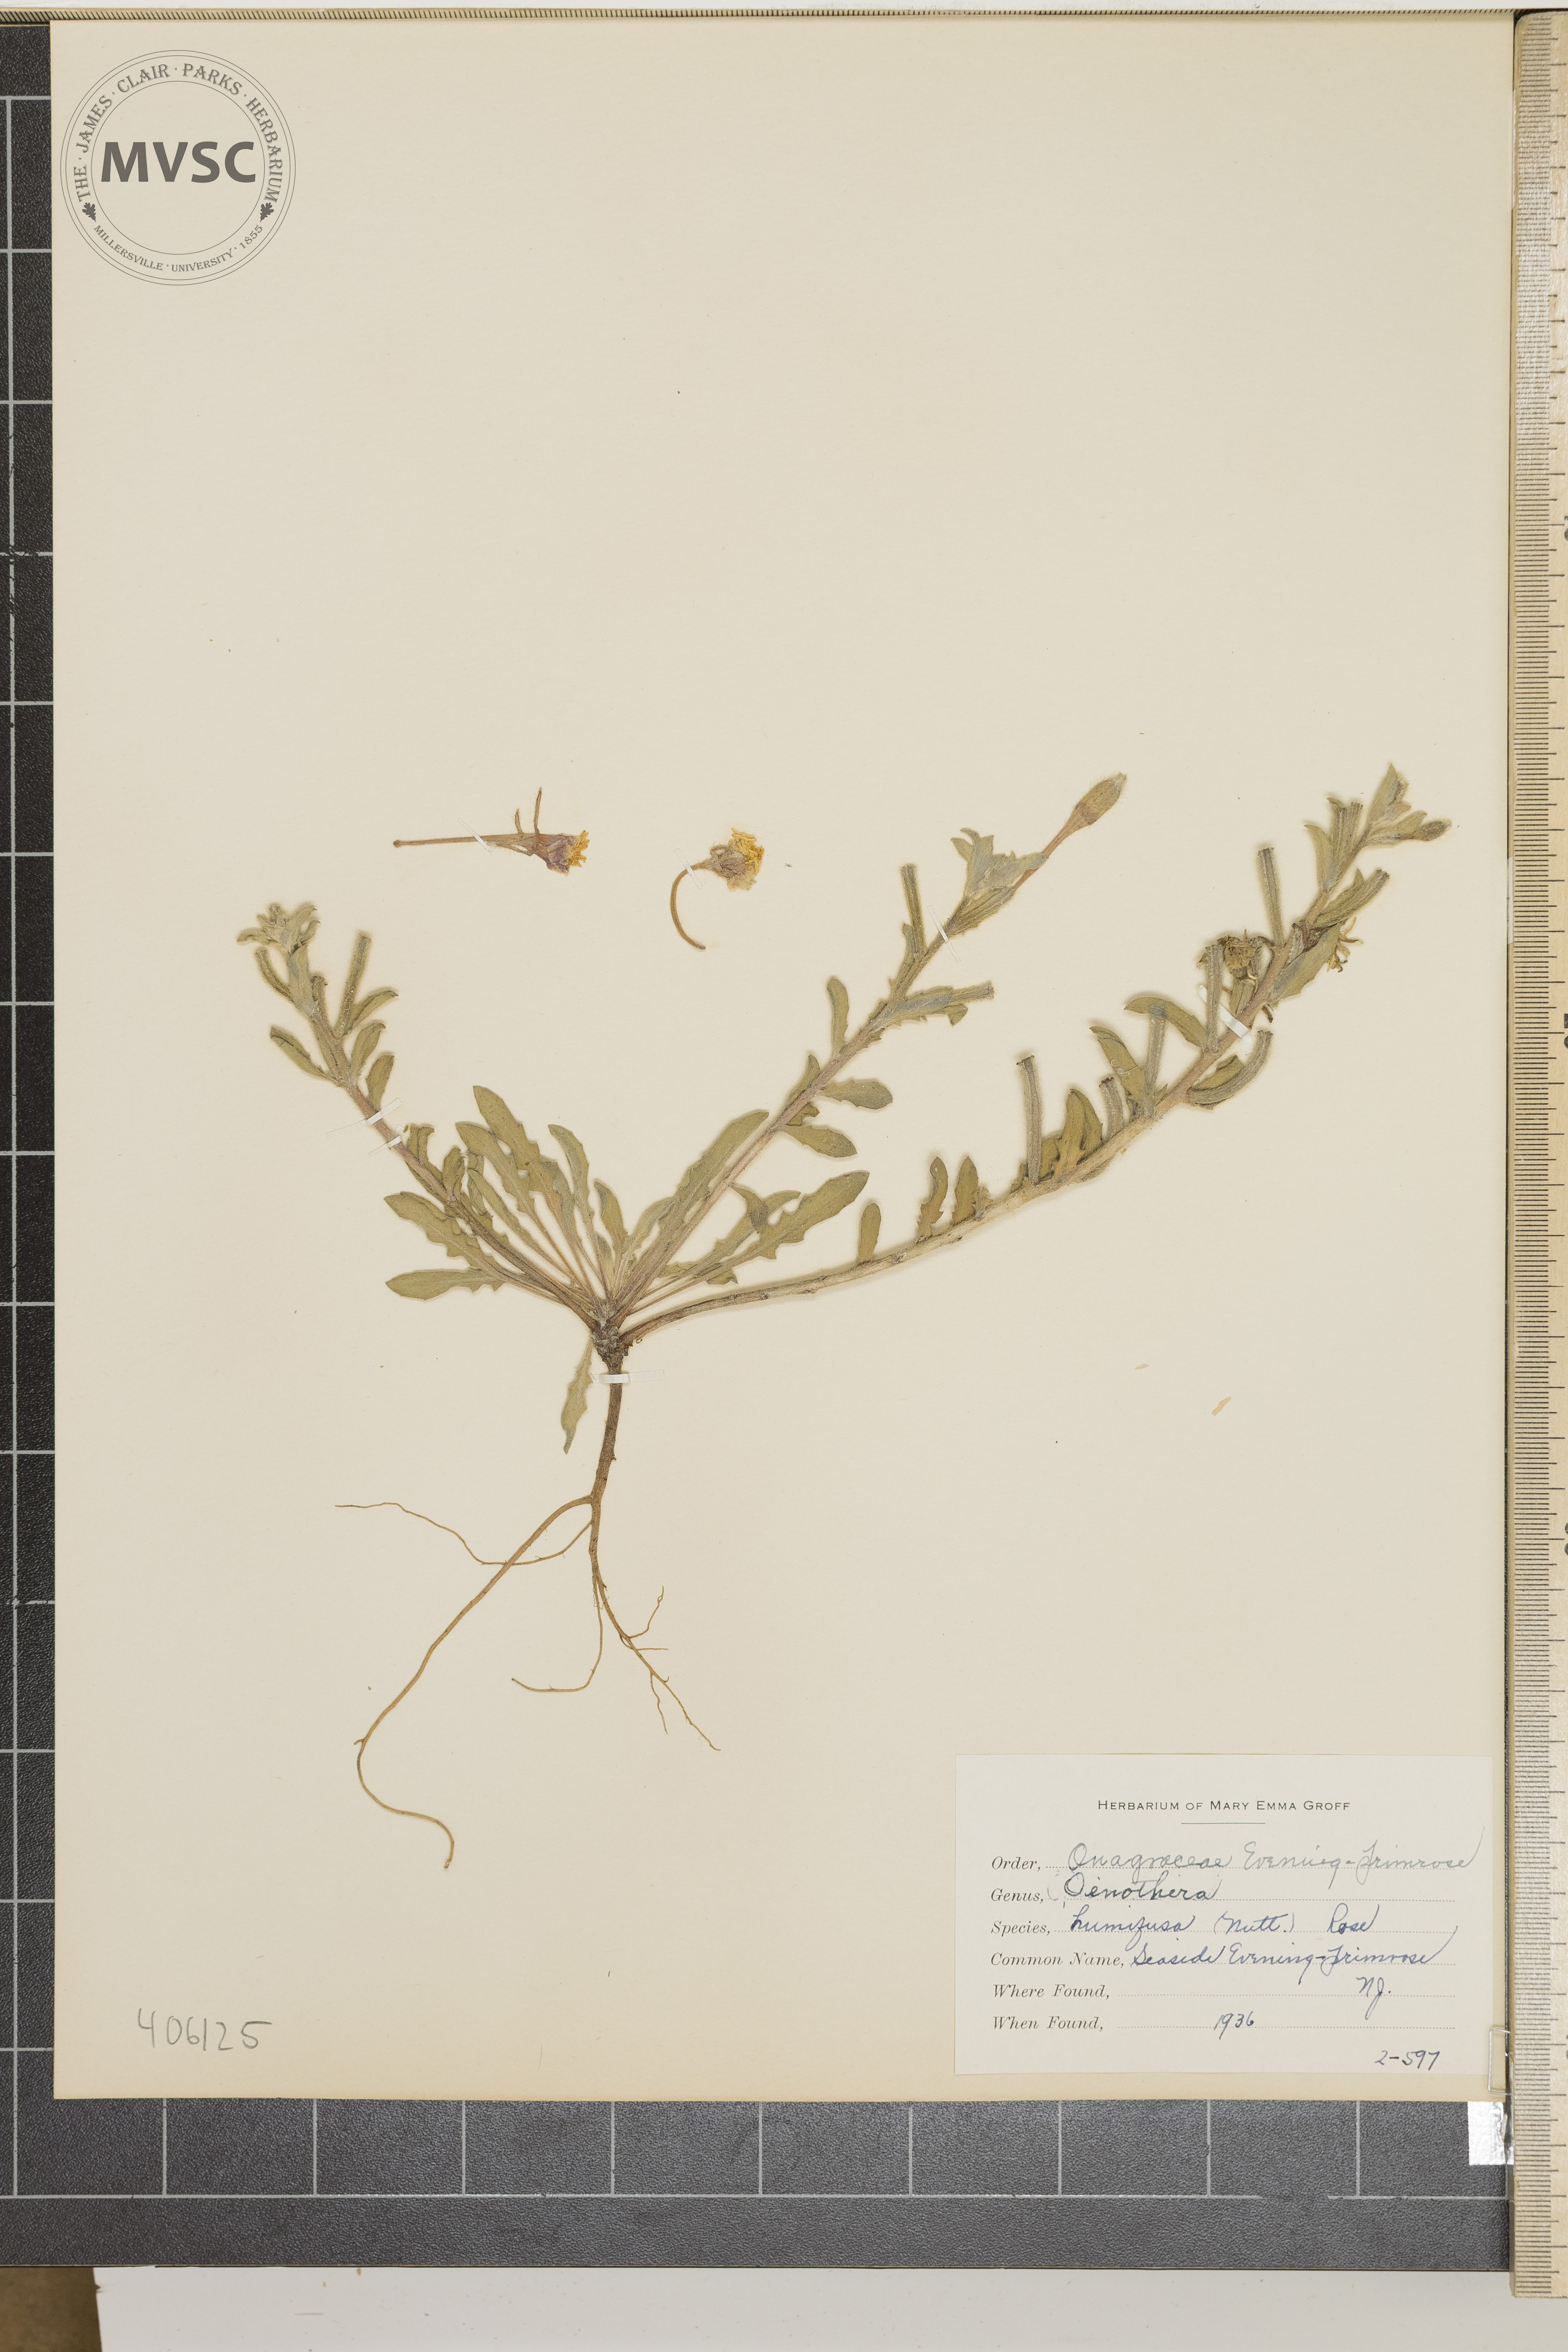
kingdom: Plantae
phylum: Tracheophyta
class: Magnoliopsida
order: Myrtales
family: Onagraceae
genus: Oenothera
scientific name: Oenothera humifusa
